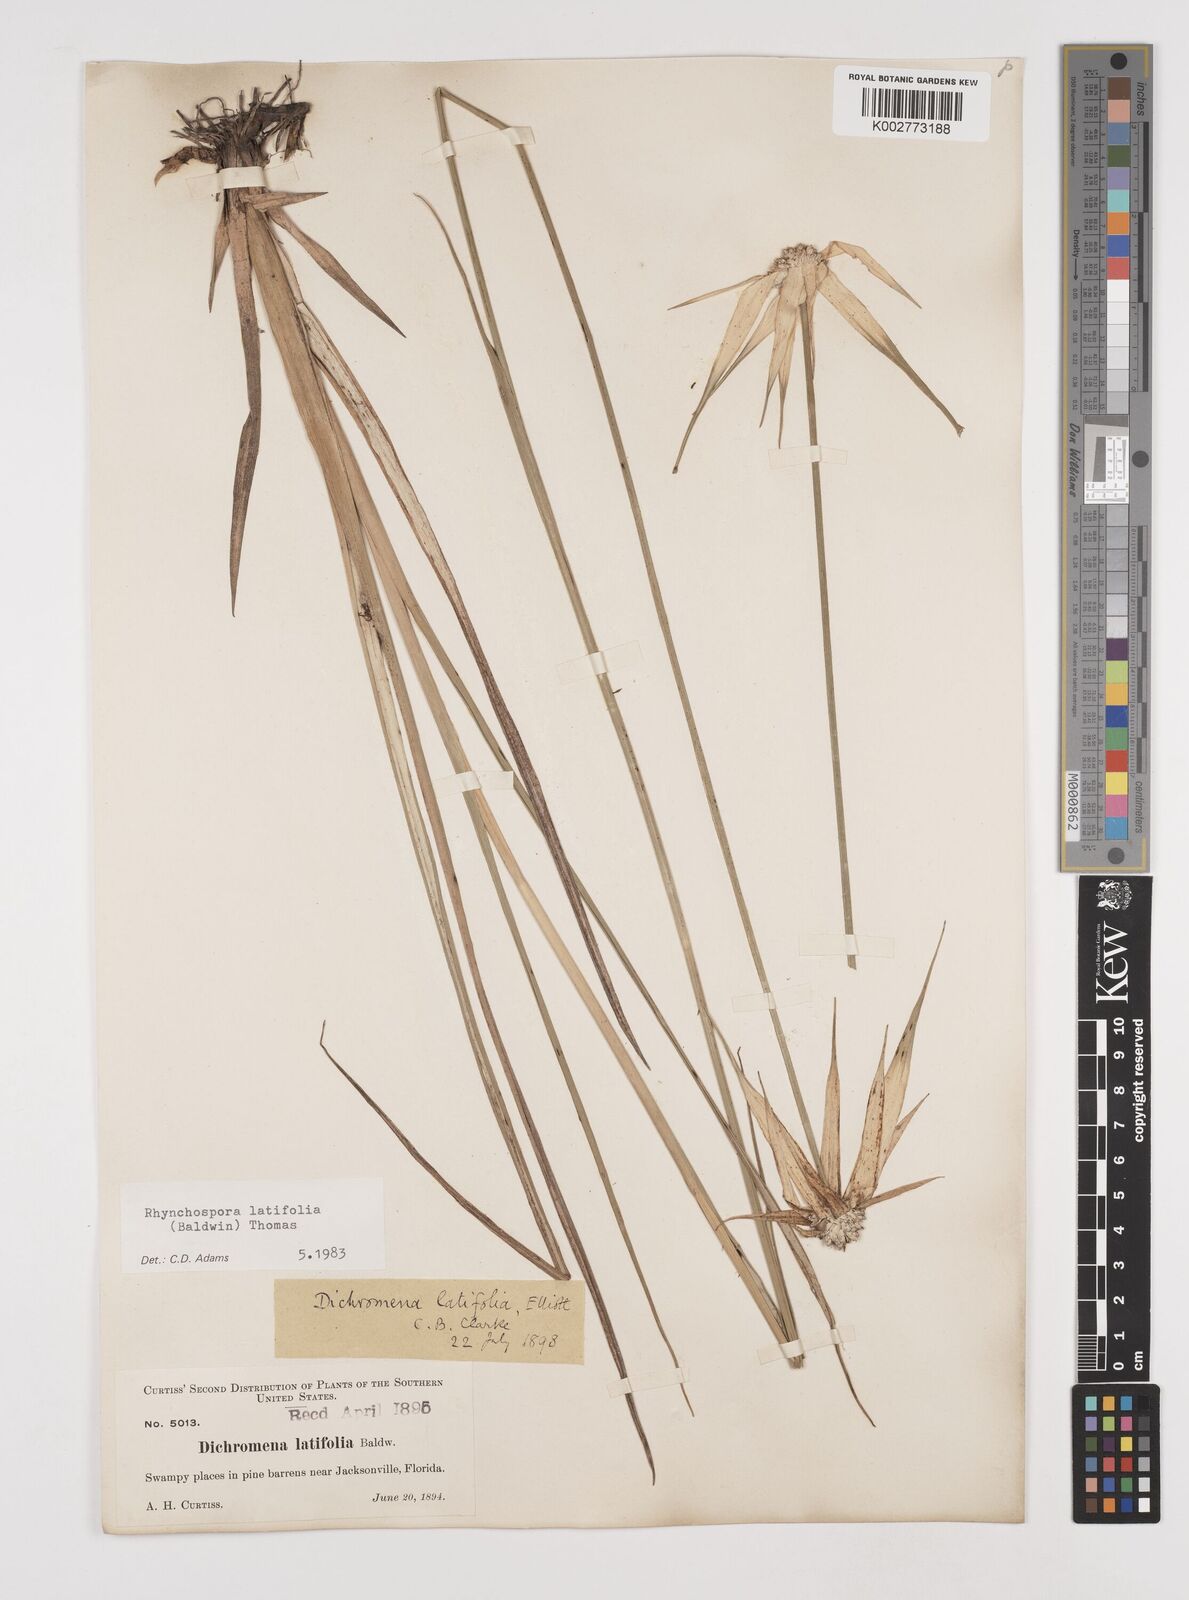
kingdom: Plantae
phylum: Tracheophyta
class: Liliopsida
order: Poales
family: Cyperaceae
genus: Rhynchospora
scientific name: Rhynchospora latifolia
